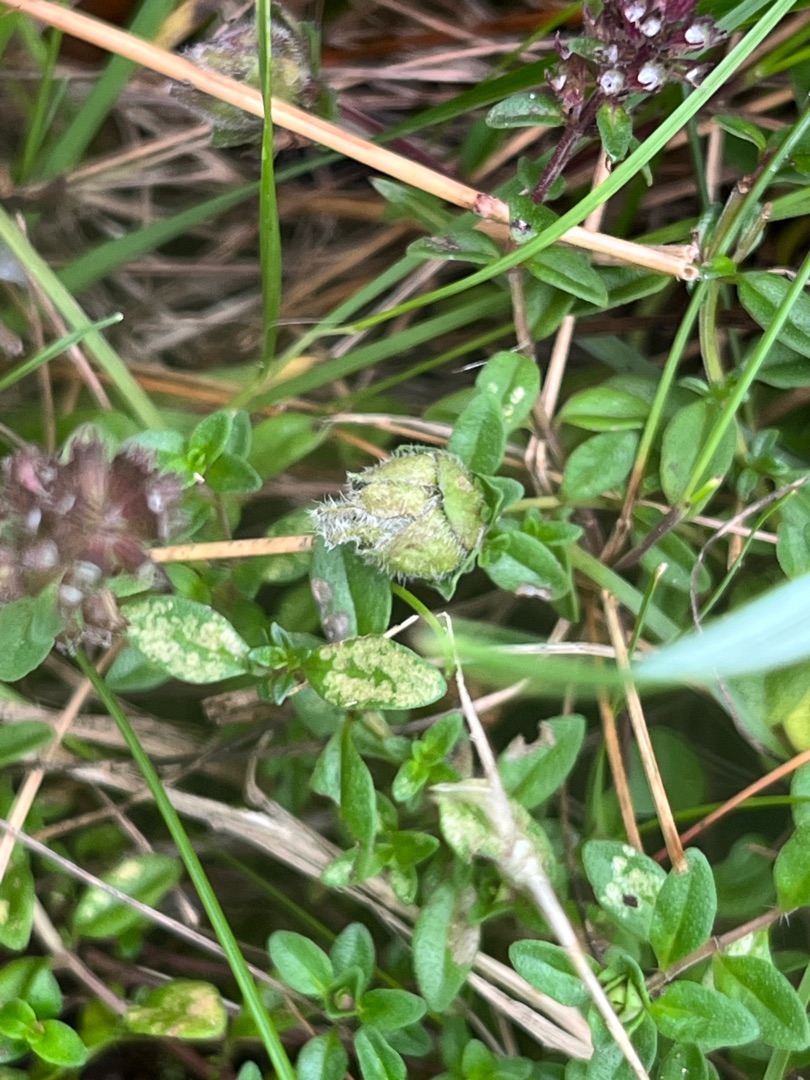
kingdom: Animalia
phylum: Arthropoda
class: Insecta
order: Diptera
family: Cecidomyiidae
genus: Bayeriola
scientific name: Bayeriola thymicola
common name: Timianblomstgalmyg
